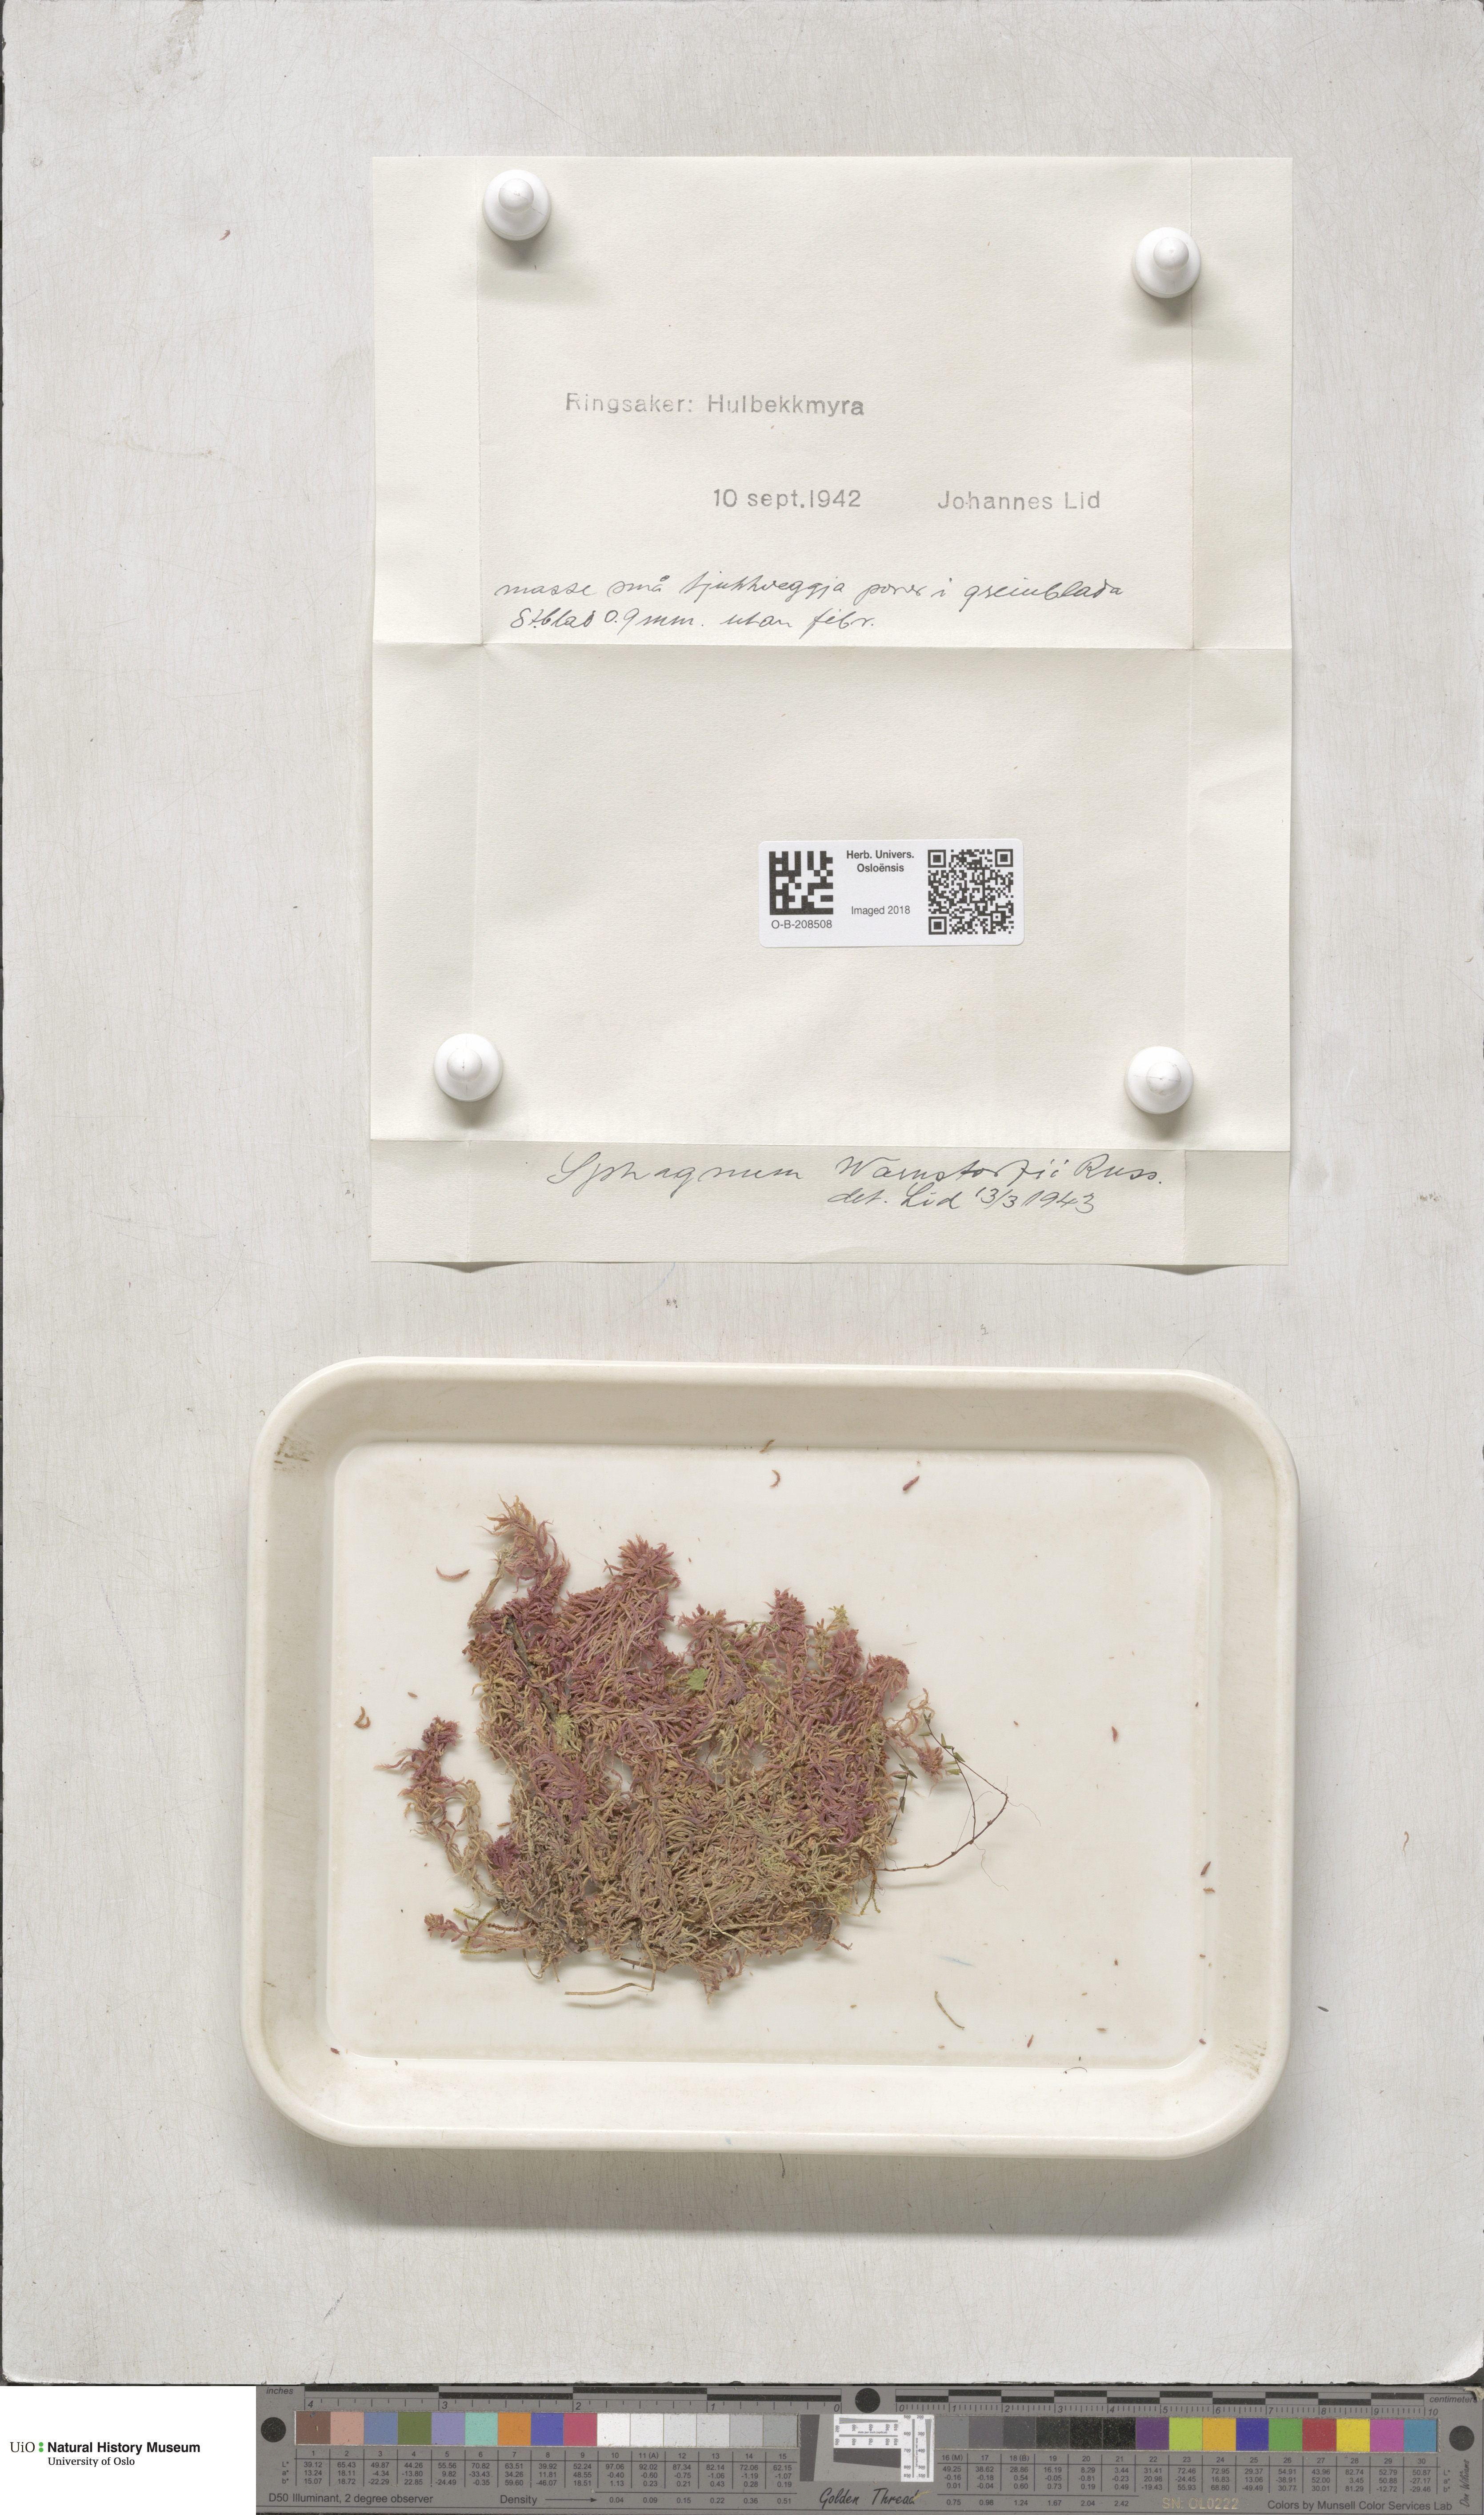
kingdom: Plantae
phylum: Bryophyta
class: Sphagnopsida
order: Sphagnales
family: Sphagnaceae
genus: Sphagnum
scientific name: Sphagnum warnstorfii
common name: Warnstorf's peat moss
